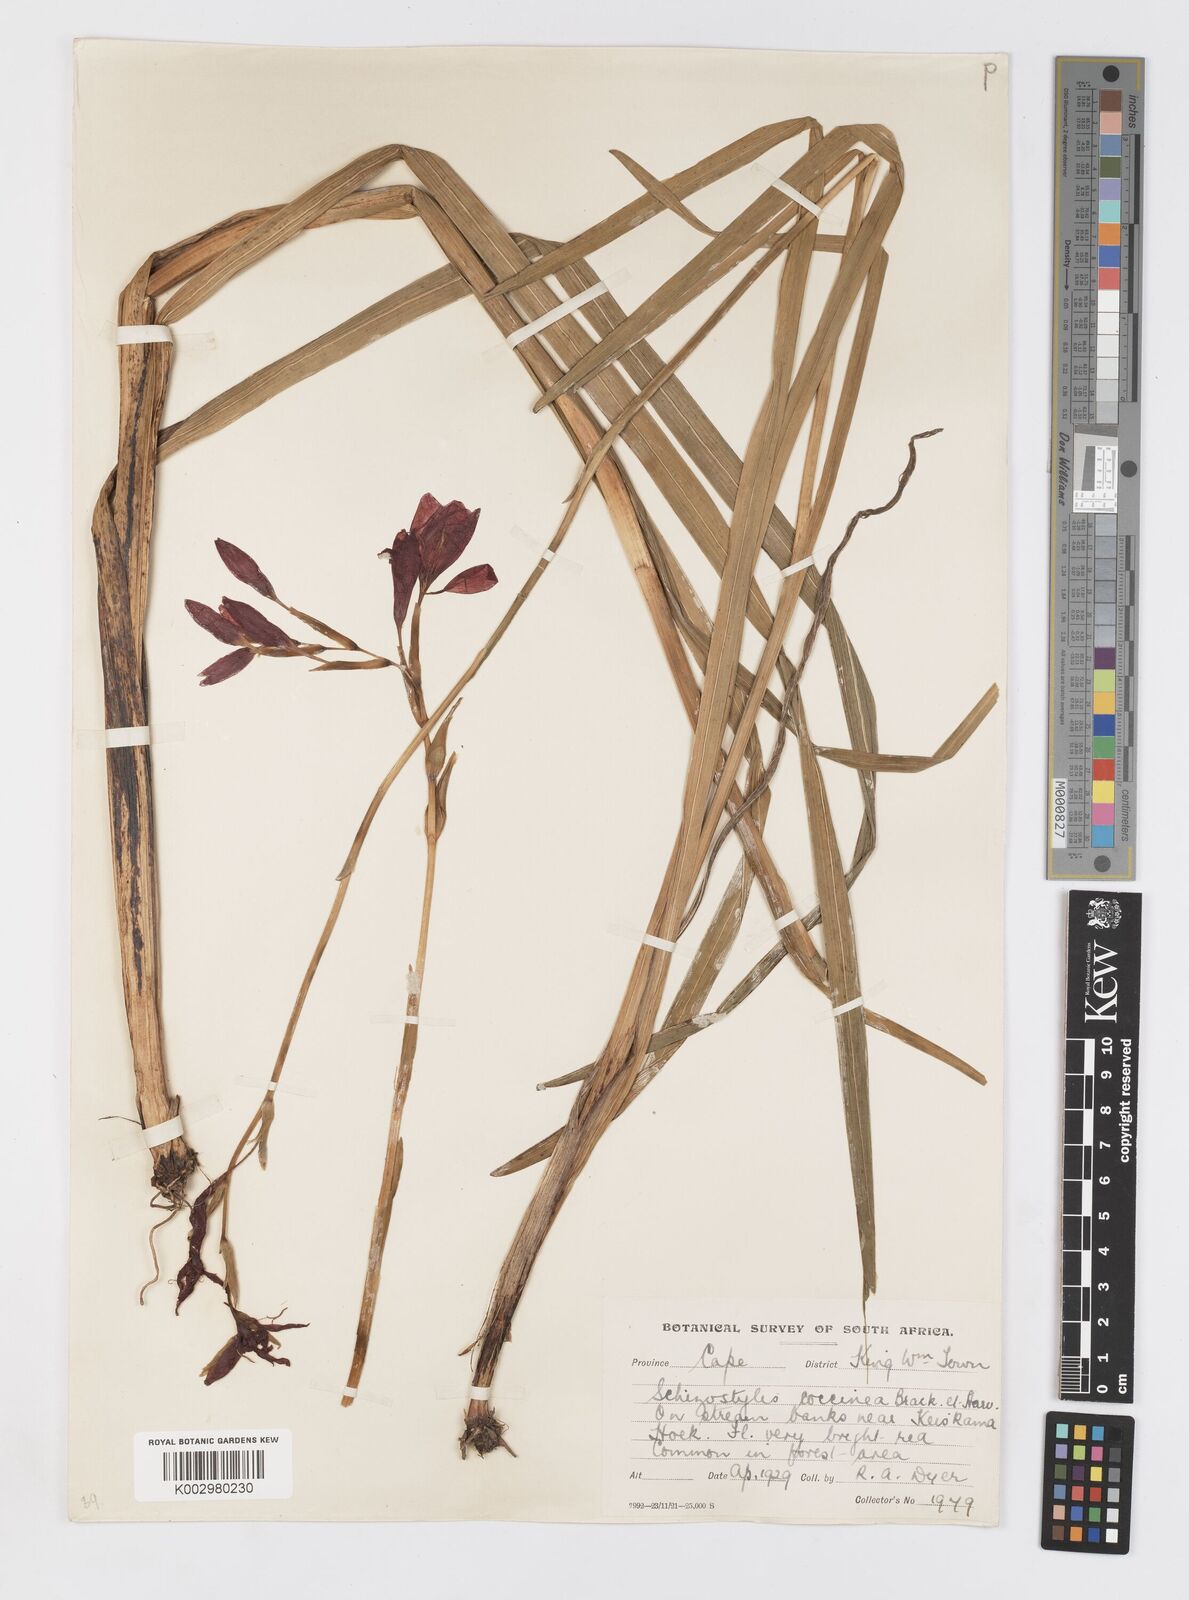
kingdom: Plantae
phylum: Tracheophyta
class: Liliopsida
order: Asparagales
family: Iridaceae
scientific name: Iridaceae
